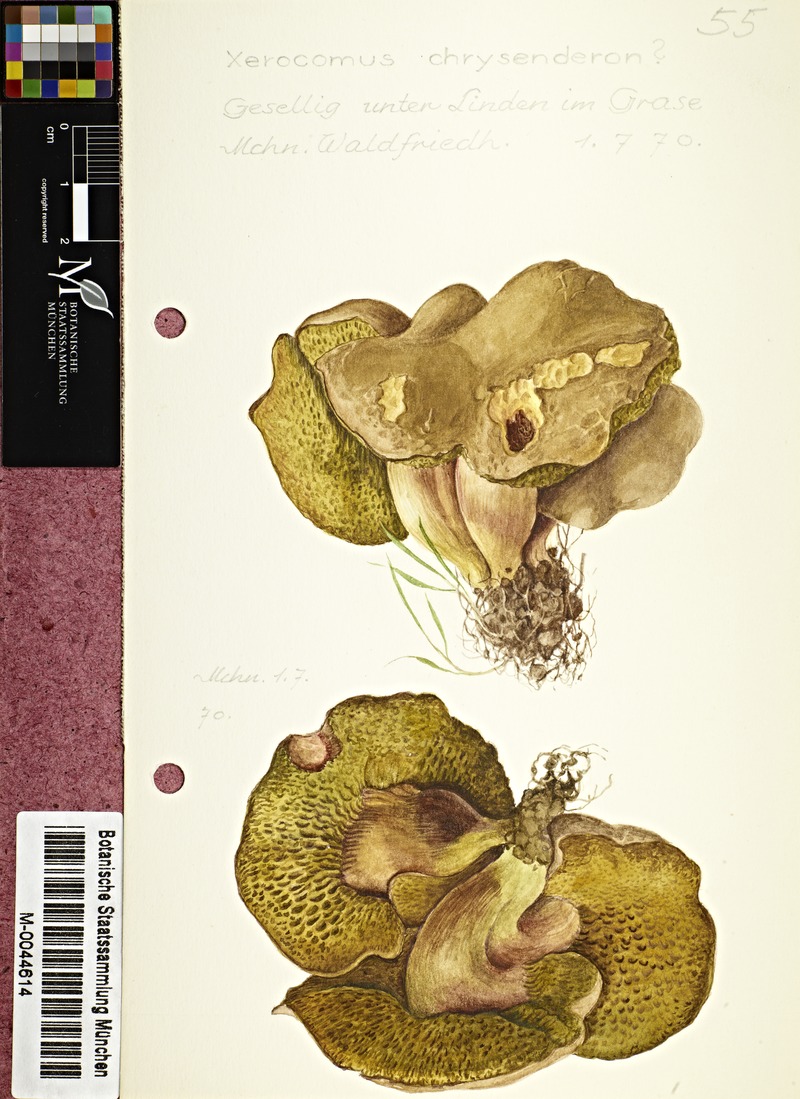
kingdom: Fungi
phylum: Basidiomycota
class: Agaricomycetes
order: Boletales
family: Boletaceae
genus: Xerocomellus
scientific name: Xerocomellus chrysenteron
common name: Red-cracking bolete
